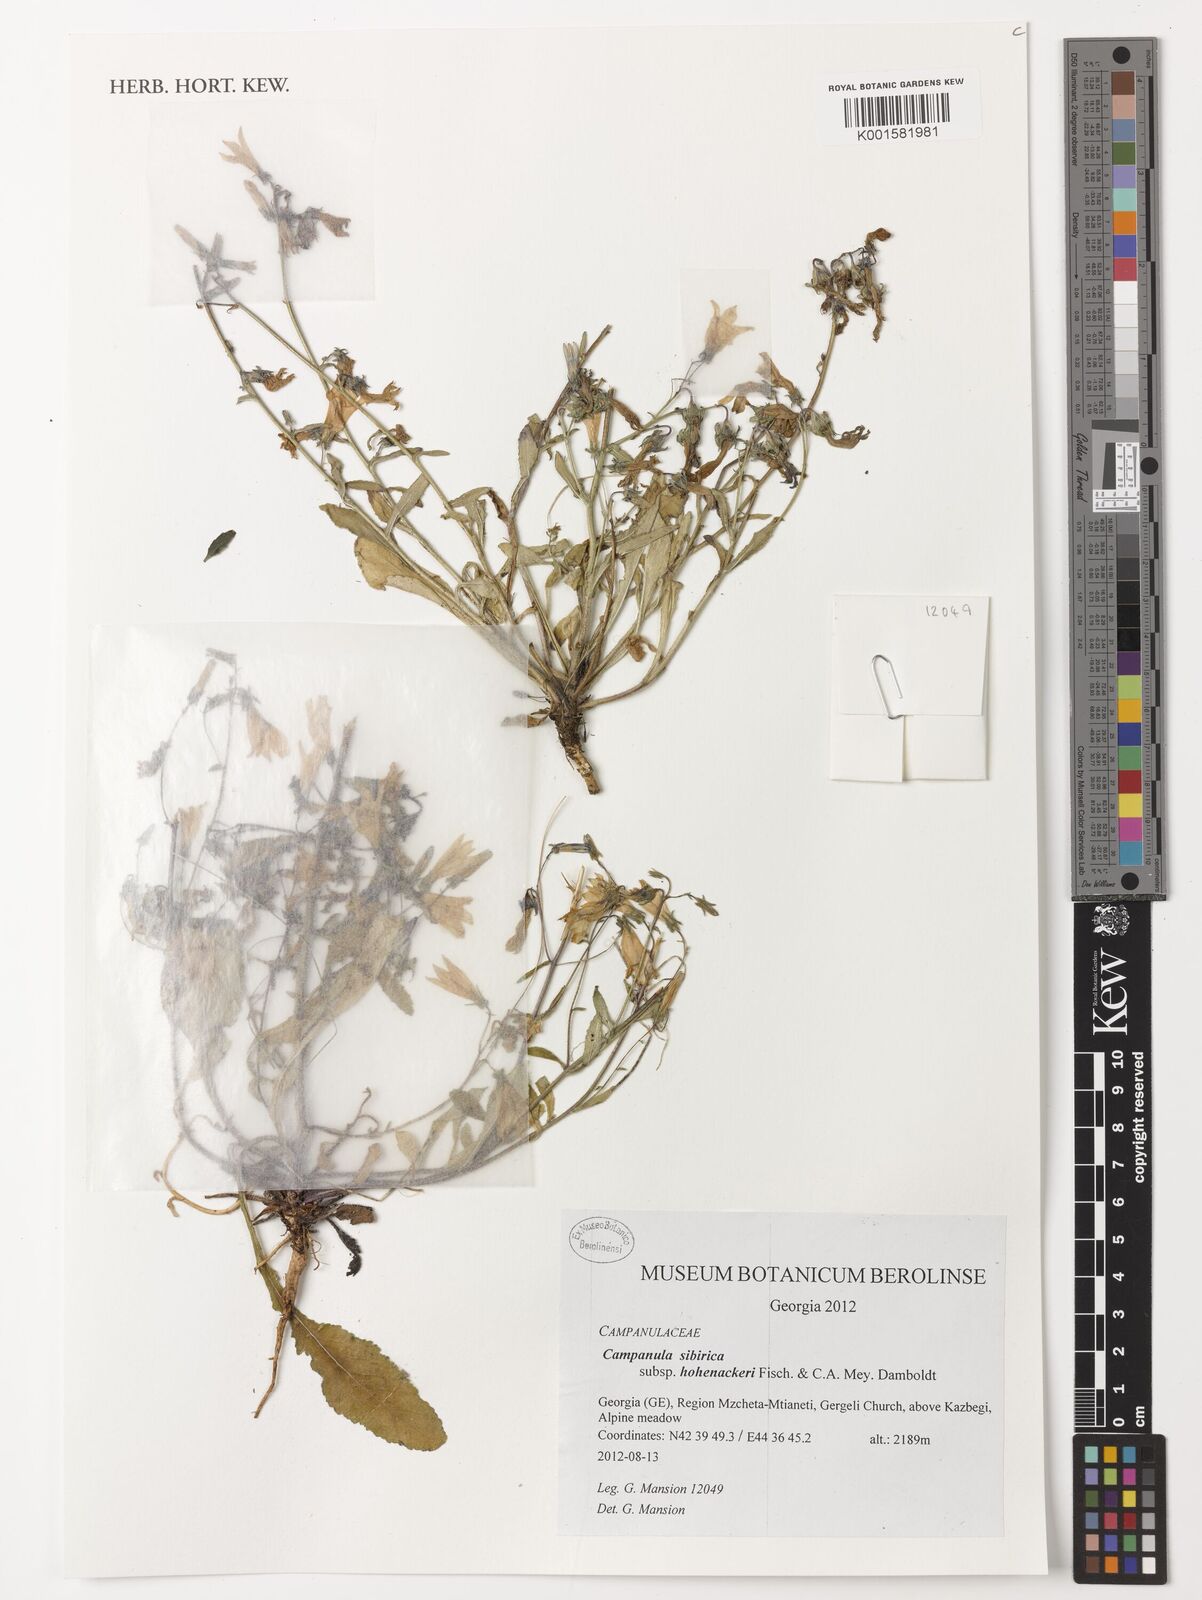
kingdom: Plantae
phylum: Tracheophyta
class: Magnoliopsida
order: Asterales
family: Campanulaceae
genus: Campanula
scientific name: Campanula sibirica
